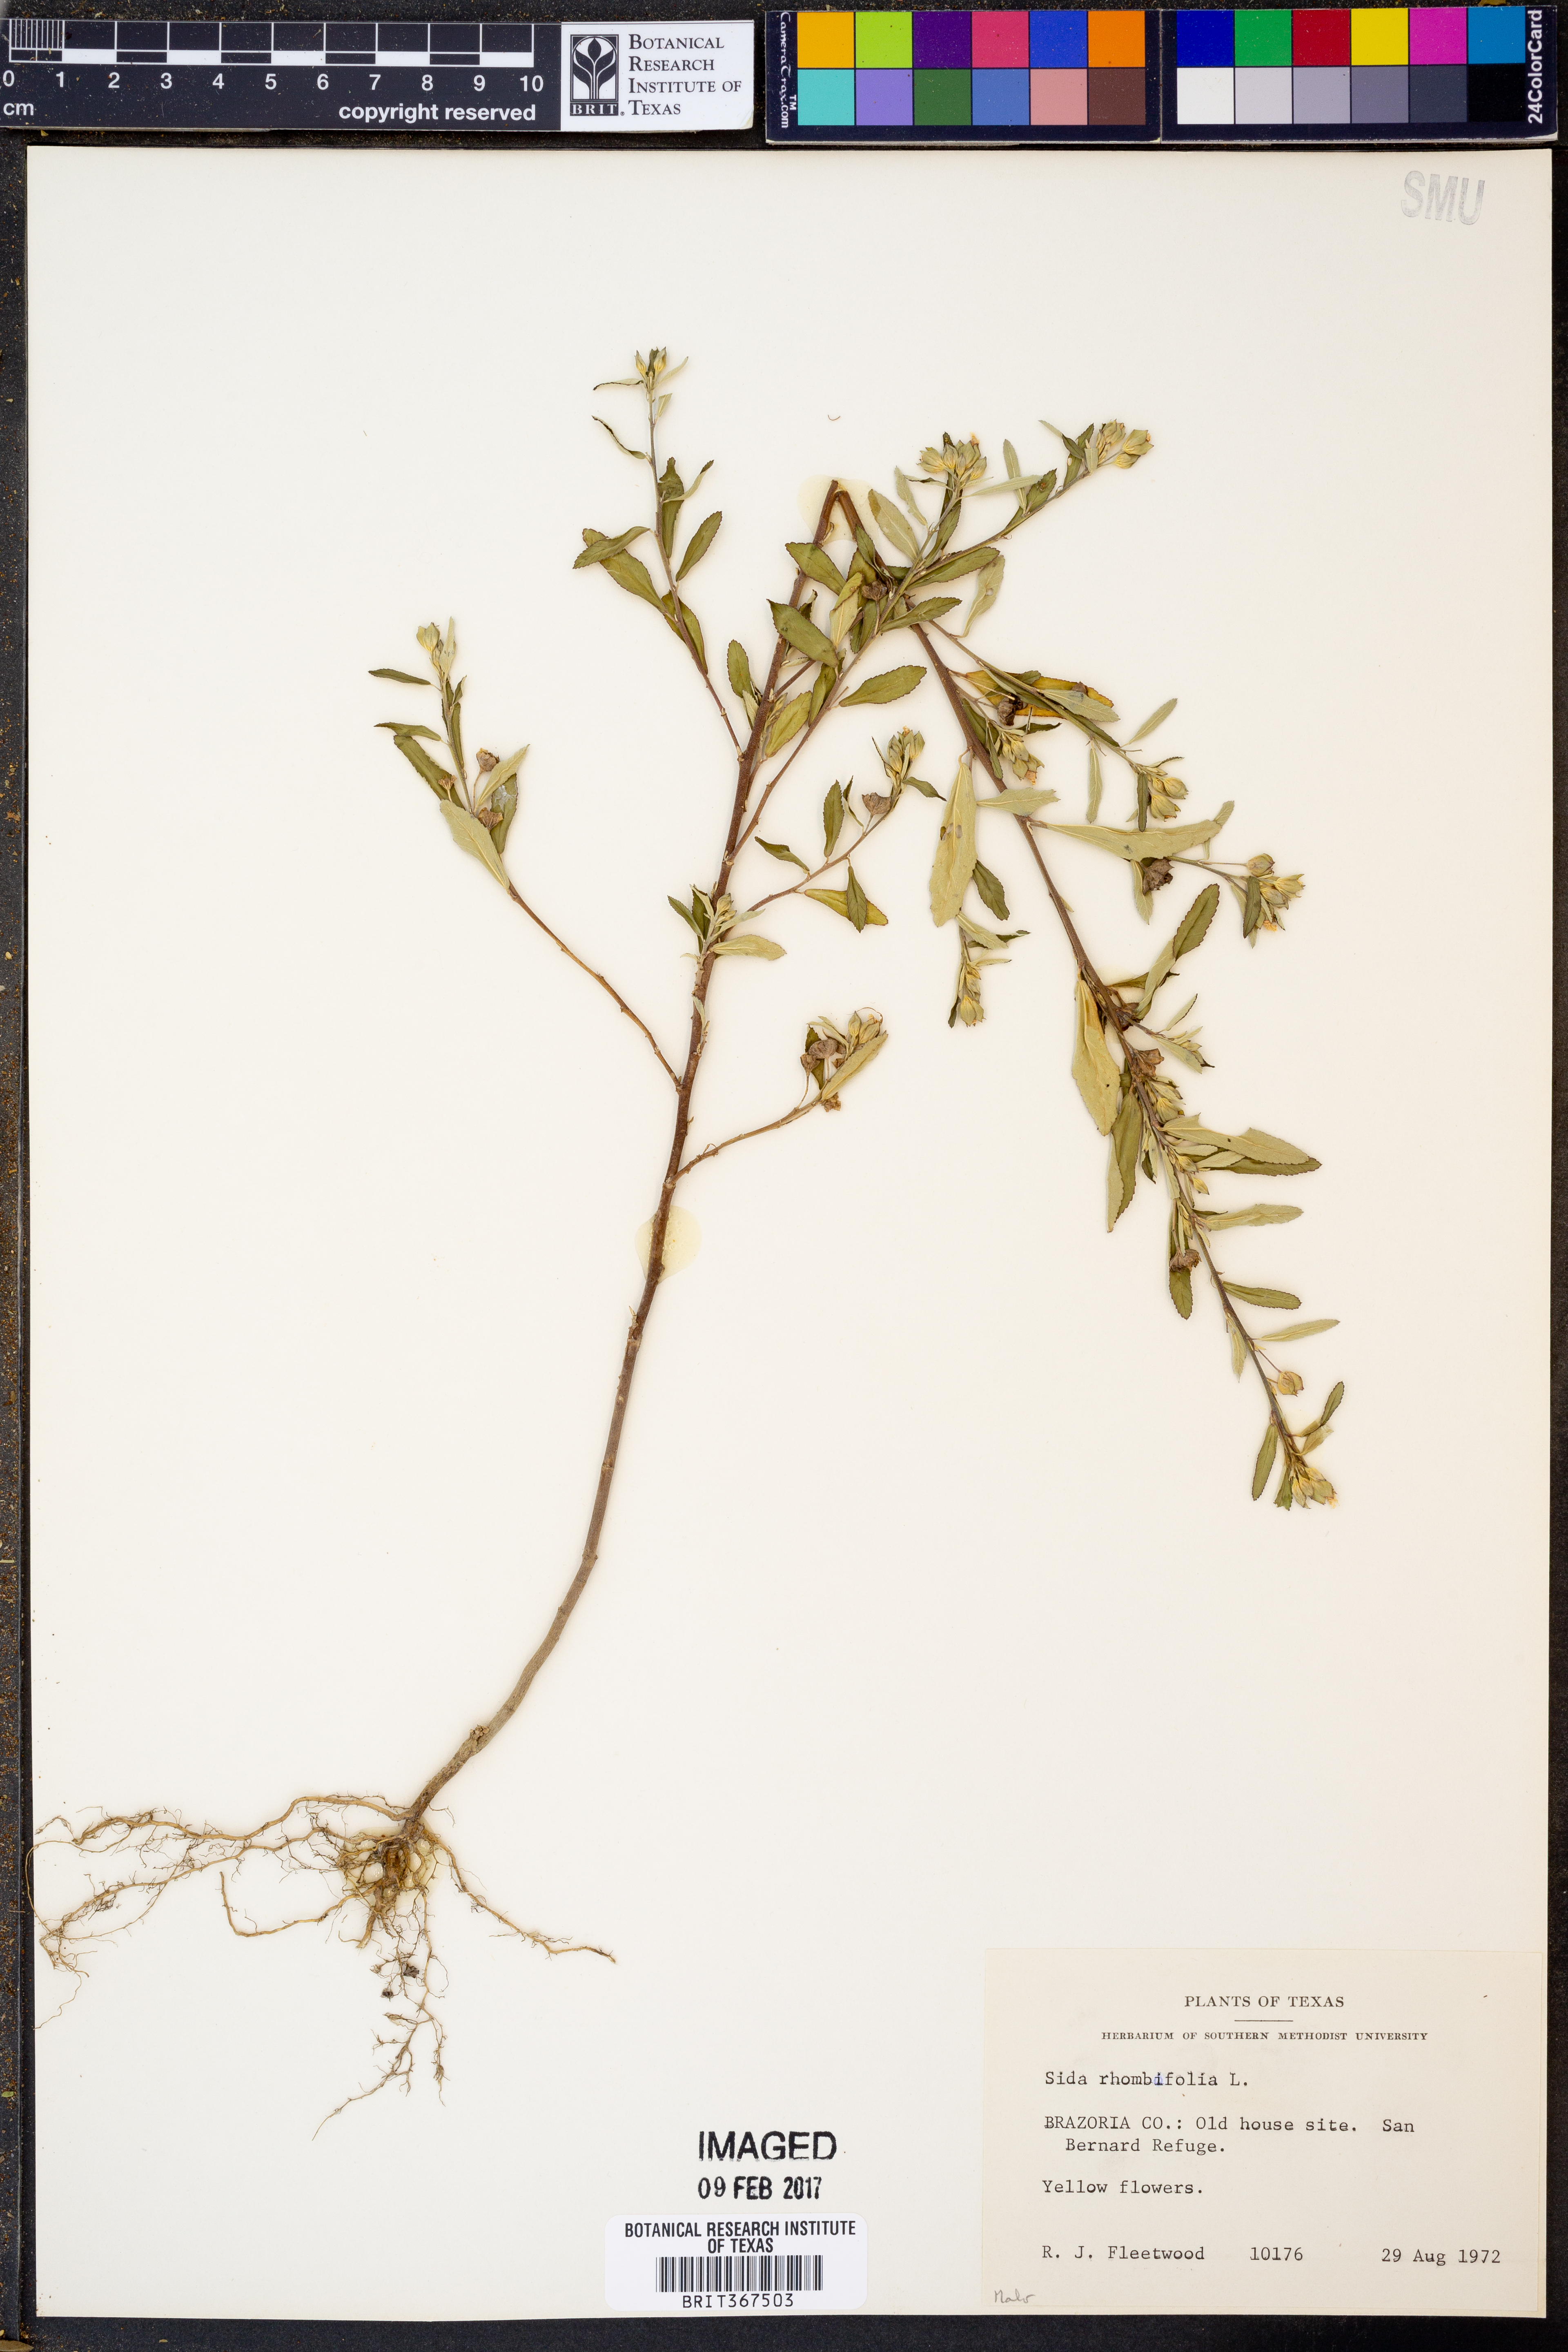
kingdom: Plantae
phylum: Tracheophyta
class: Magnoliopsida
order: Malvales
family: Malvaceae
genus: Sida
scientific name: Sida rhombifolia
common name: Queensland-hemp
